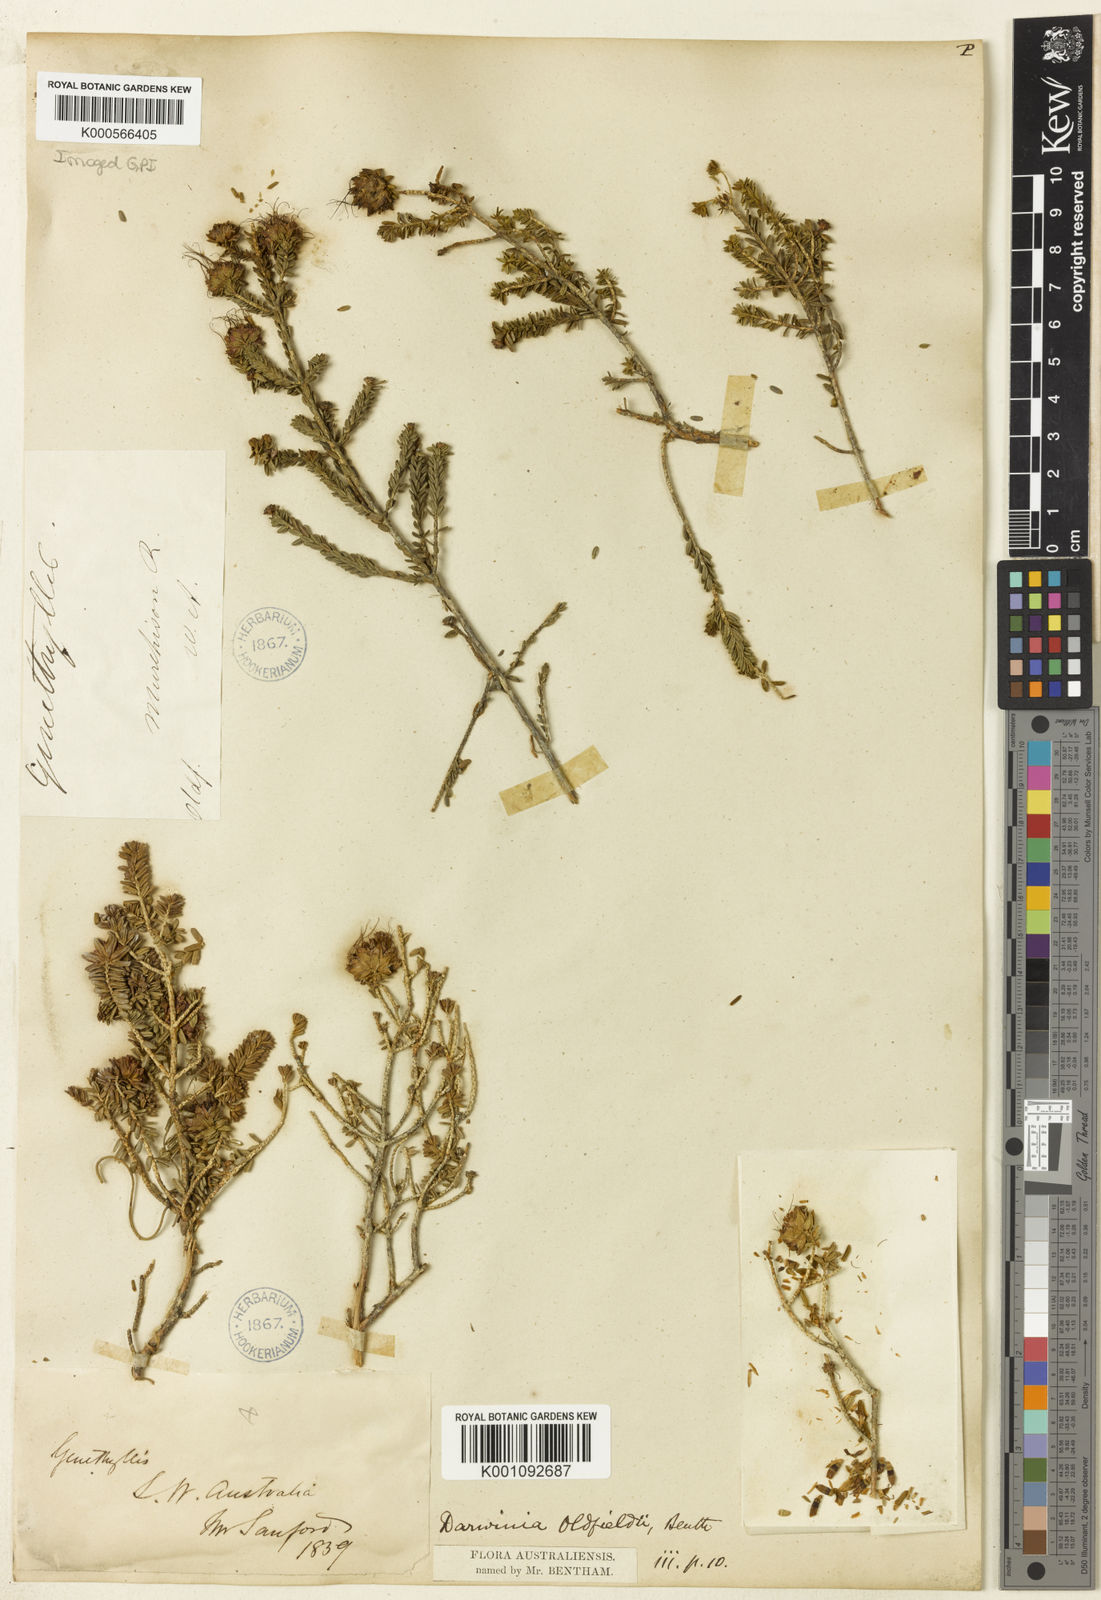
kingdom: Plantae
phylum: Tracheophyta
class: Magnoliopsida
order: Myrtales
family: Myrtaceae
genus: Darwinia
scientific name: Darwinia oldfieldii
